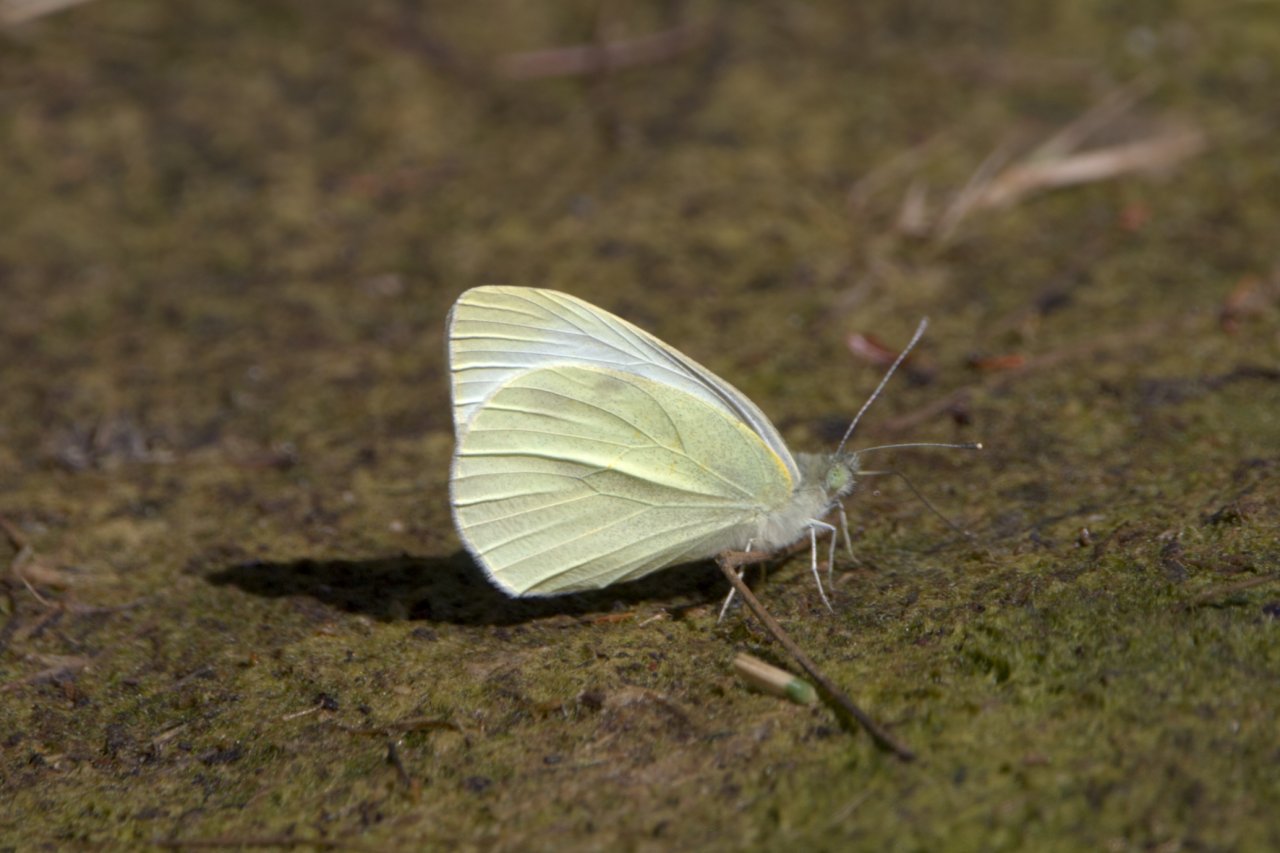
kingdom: Animalia
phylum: Arthropoda
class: Insecta
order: Lepidoptera
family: Pieridae
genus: Pieris
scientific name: Pieris rapae
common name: Cabbage White
